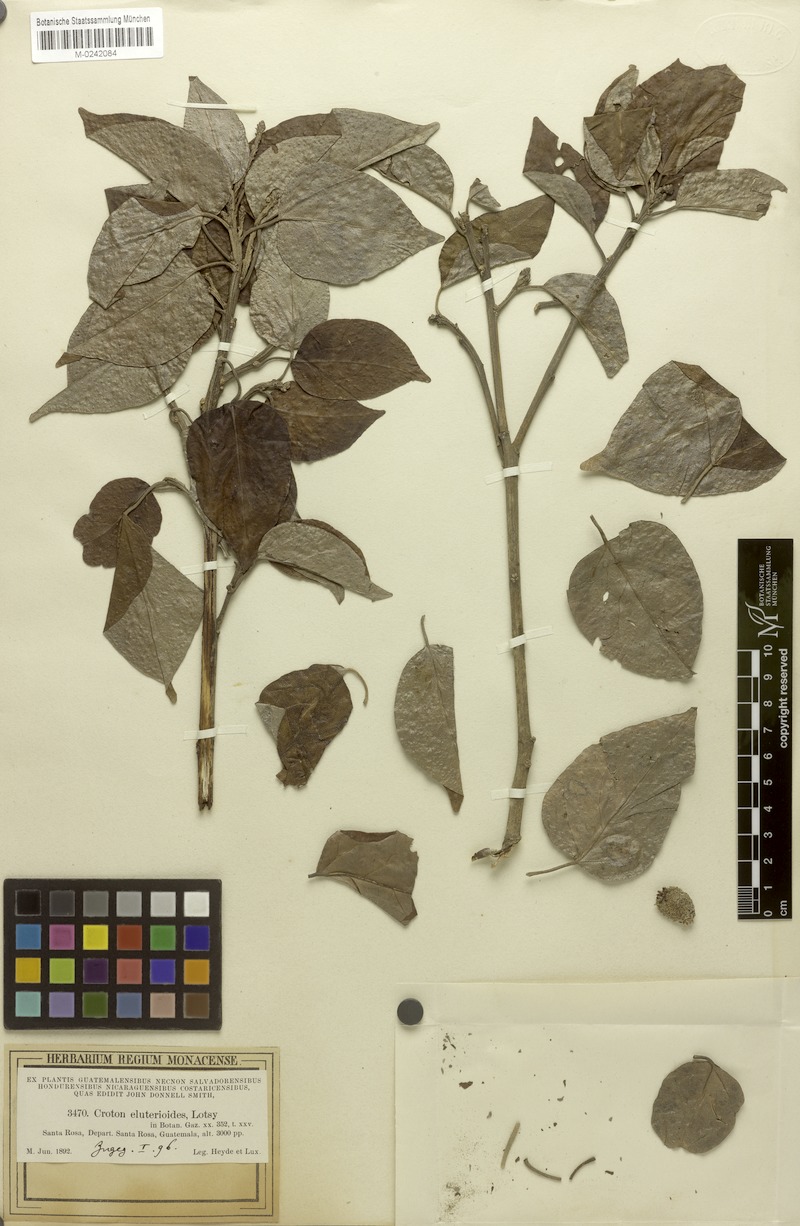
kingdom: Plantae
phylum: Tracheophyta
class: Magnoliopsida
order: Malpighiales
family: Euphorbiaceae
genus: Croton
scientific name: Croton guatemalensis
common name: Copalchi
